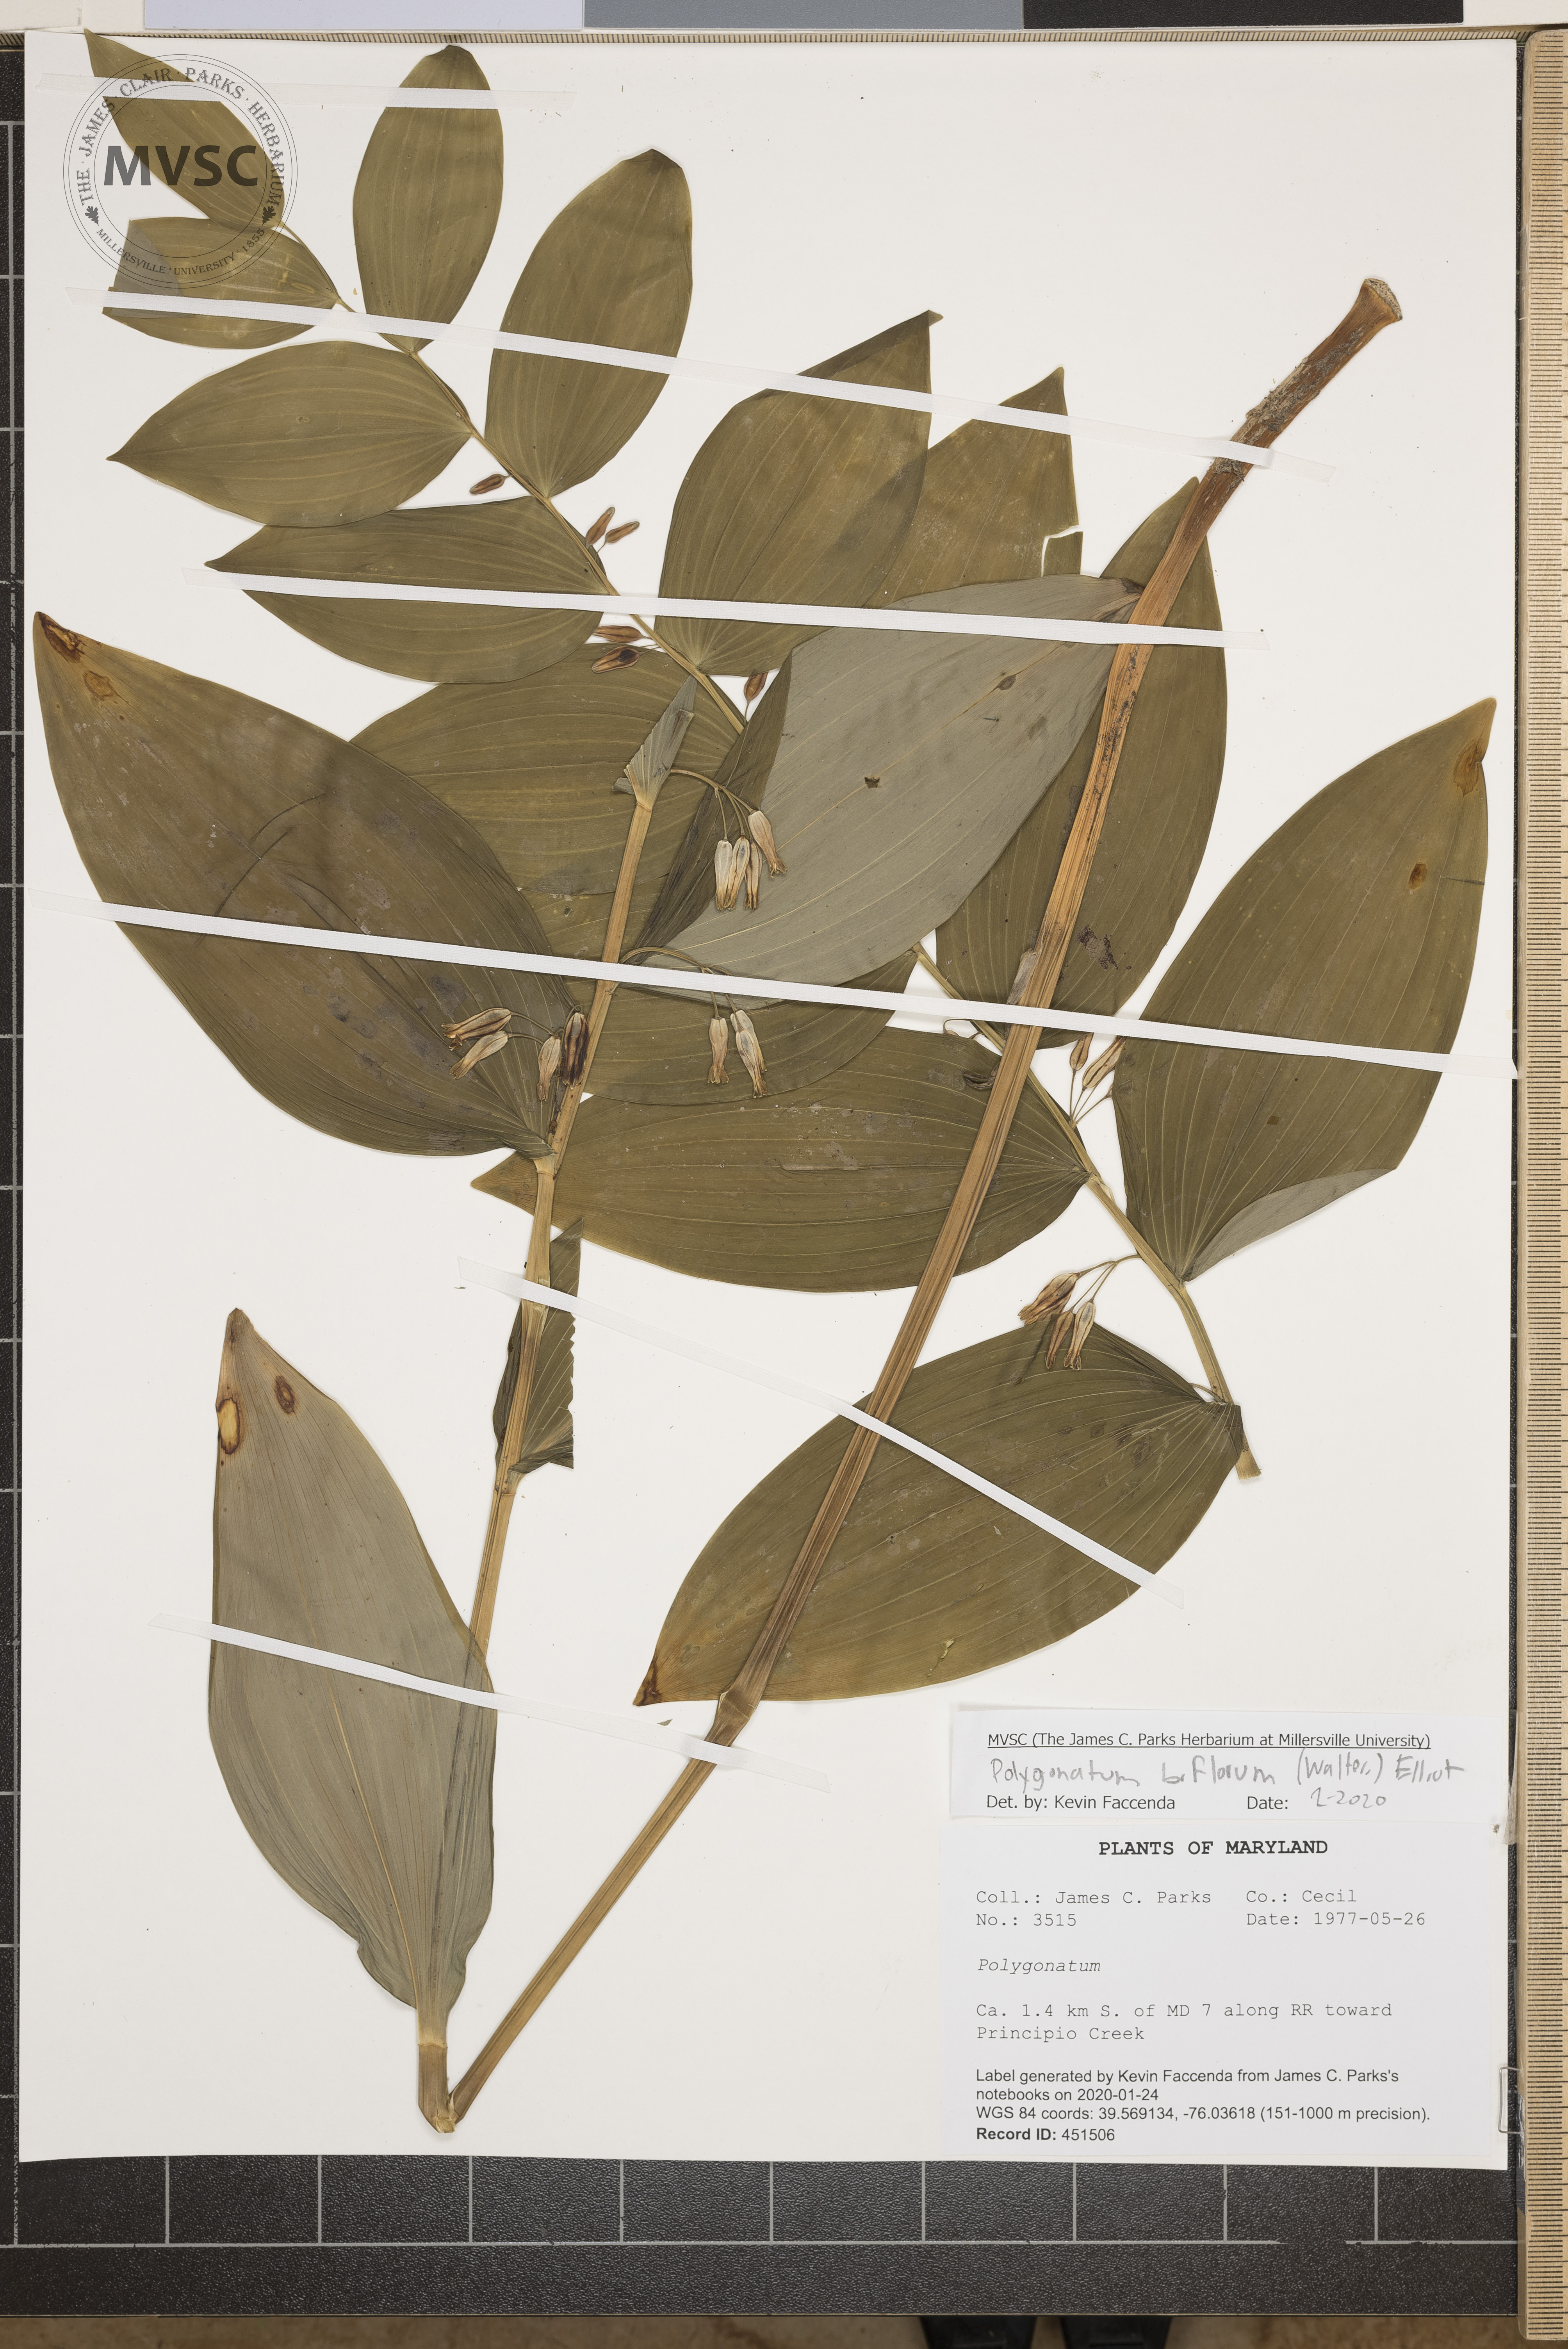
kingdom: Plantae
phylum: Tracheophyta
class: Liliopsida
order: Asparagales
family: Asparagaceae
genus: Polygonatum
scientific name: Polygonatum biflorum
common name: American solomon's-seal
